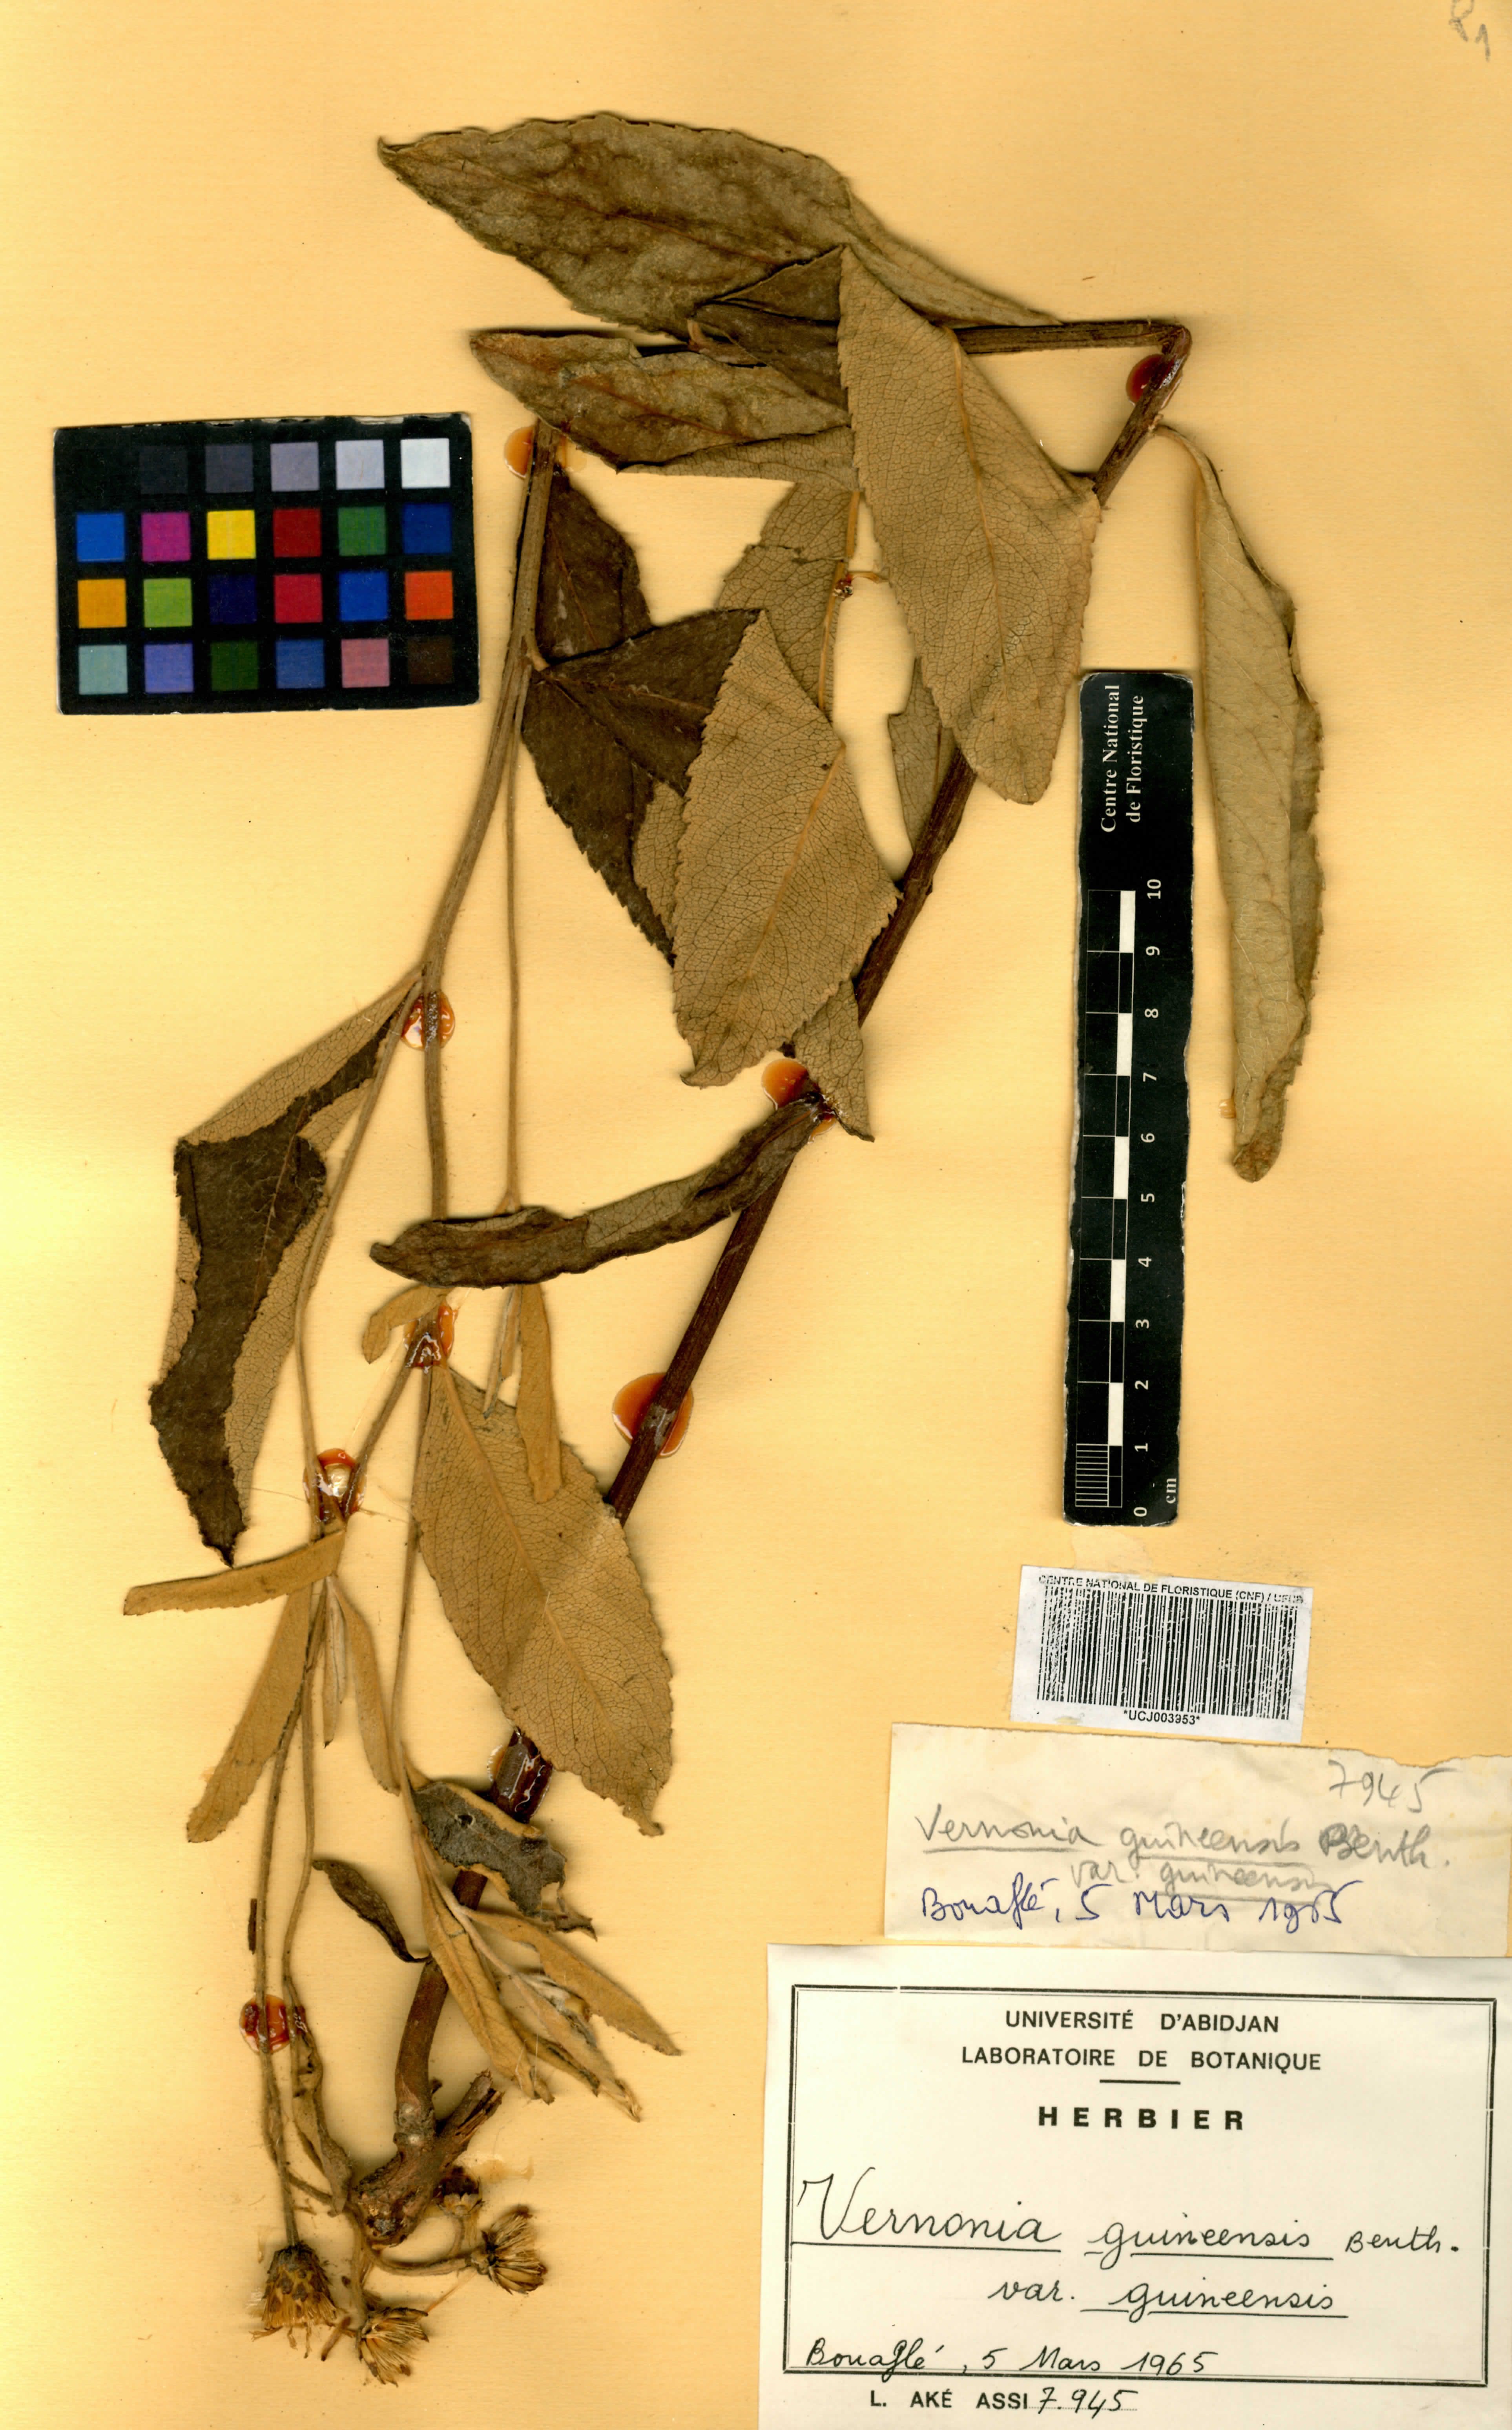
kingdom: Plantae
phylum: Tracheophyta
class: Magnoliopsida
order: Asterales
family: Asteraceae
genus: Baccharoides
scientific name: Baccharoides guineensis
